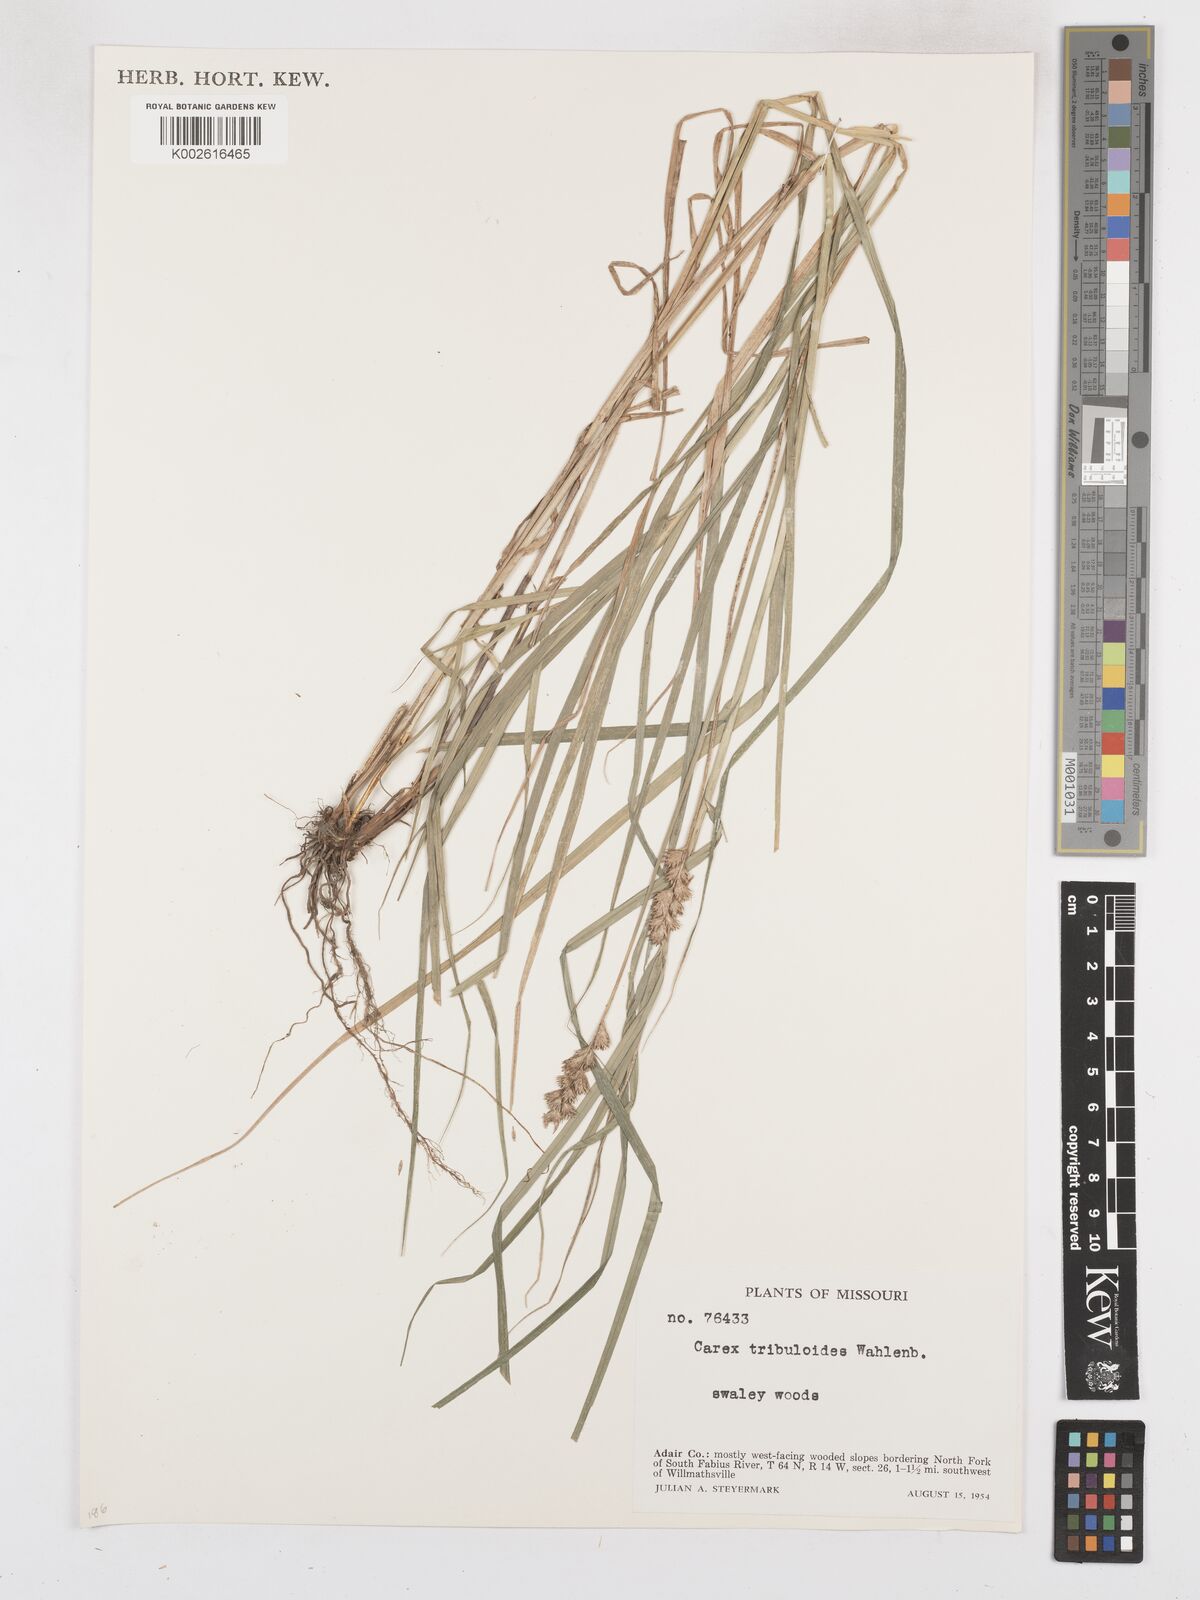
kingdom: Plantae
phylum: Tracheophyta
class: Liliopsida
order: Poales
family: Cyperaceae
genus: Carex
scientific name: Carex tribuloides
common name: Blunt broom sedge
